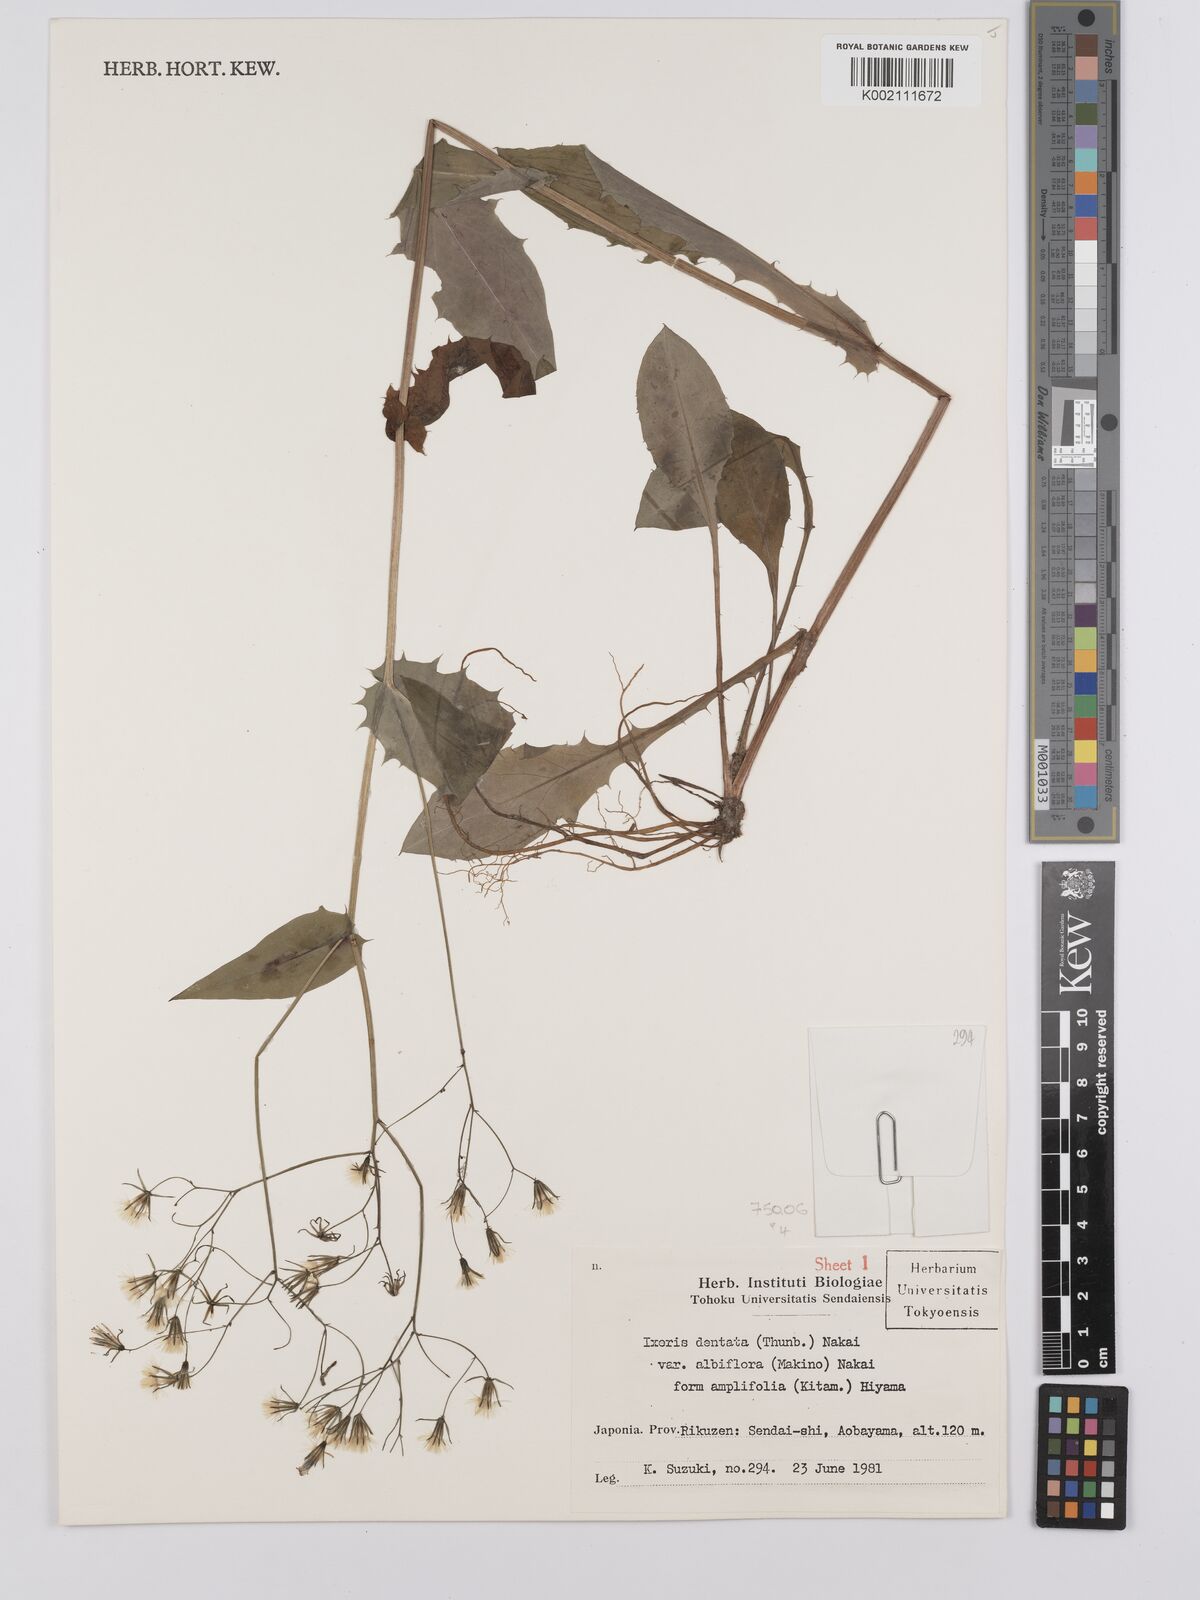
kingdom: Plantae
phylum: Tracheophyta
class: Magnoliopsida
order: Asterales
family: Asteraceae
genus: Ixeridium
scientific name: Ixeridium dentatum
